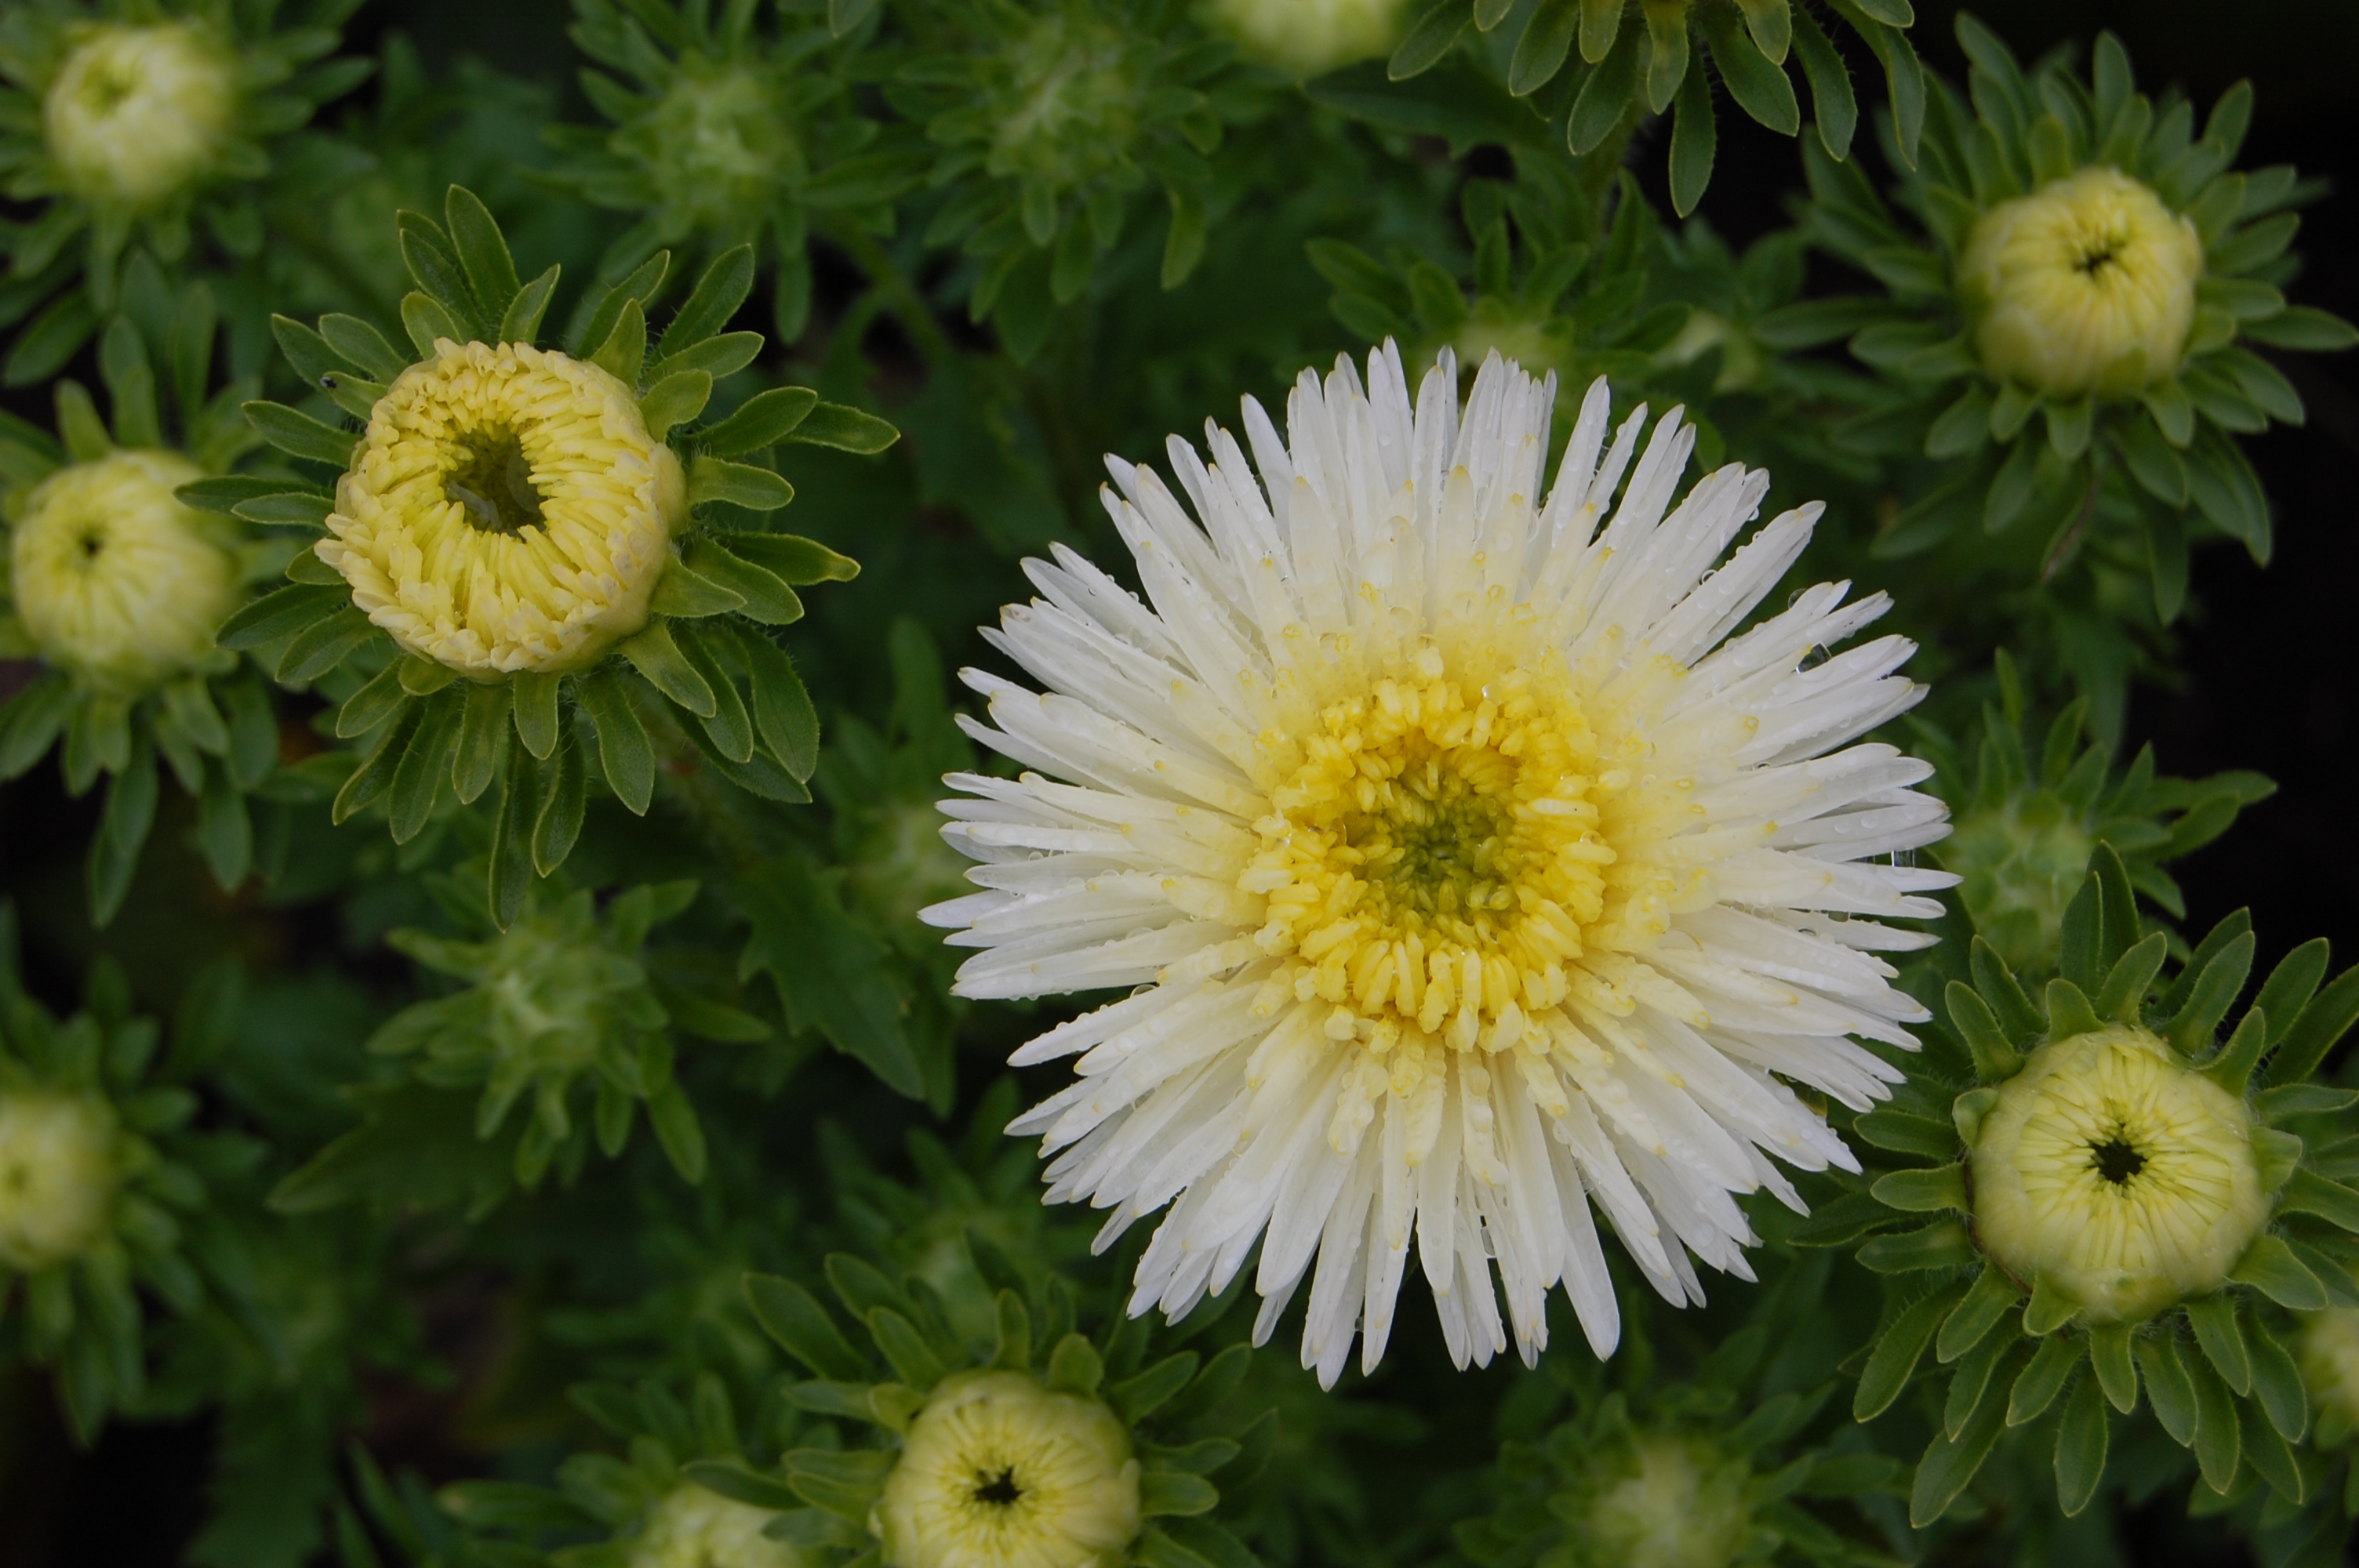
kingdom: Plantae
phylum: Tracheophyta
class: Magnoliopsida
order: Asterales
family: Asteraceae
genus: Callistephus
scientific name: Callistephus chinensis
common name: China aster
